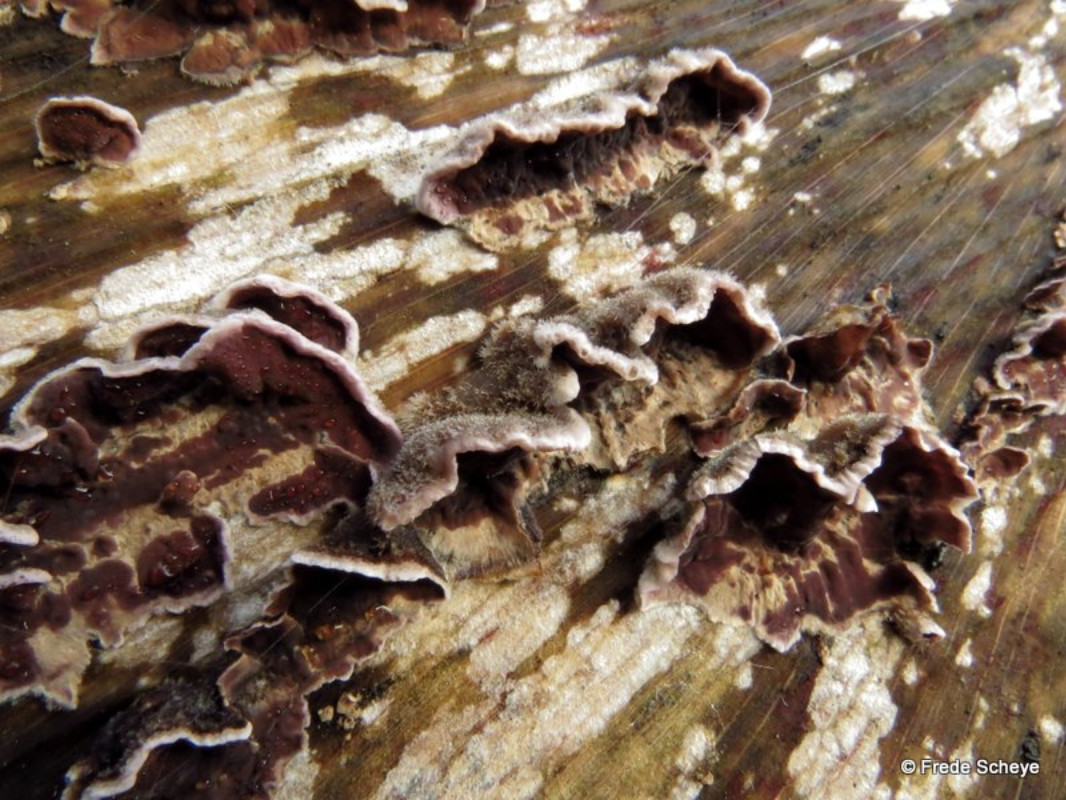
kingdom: Fungi
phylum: Basidiomycota
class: Agaricomycetes
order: Agaricales
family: Cyphellaceae
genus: Chondrostereum
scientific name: Chondrostereum purpureum
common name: purpurlædersvamp
